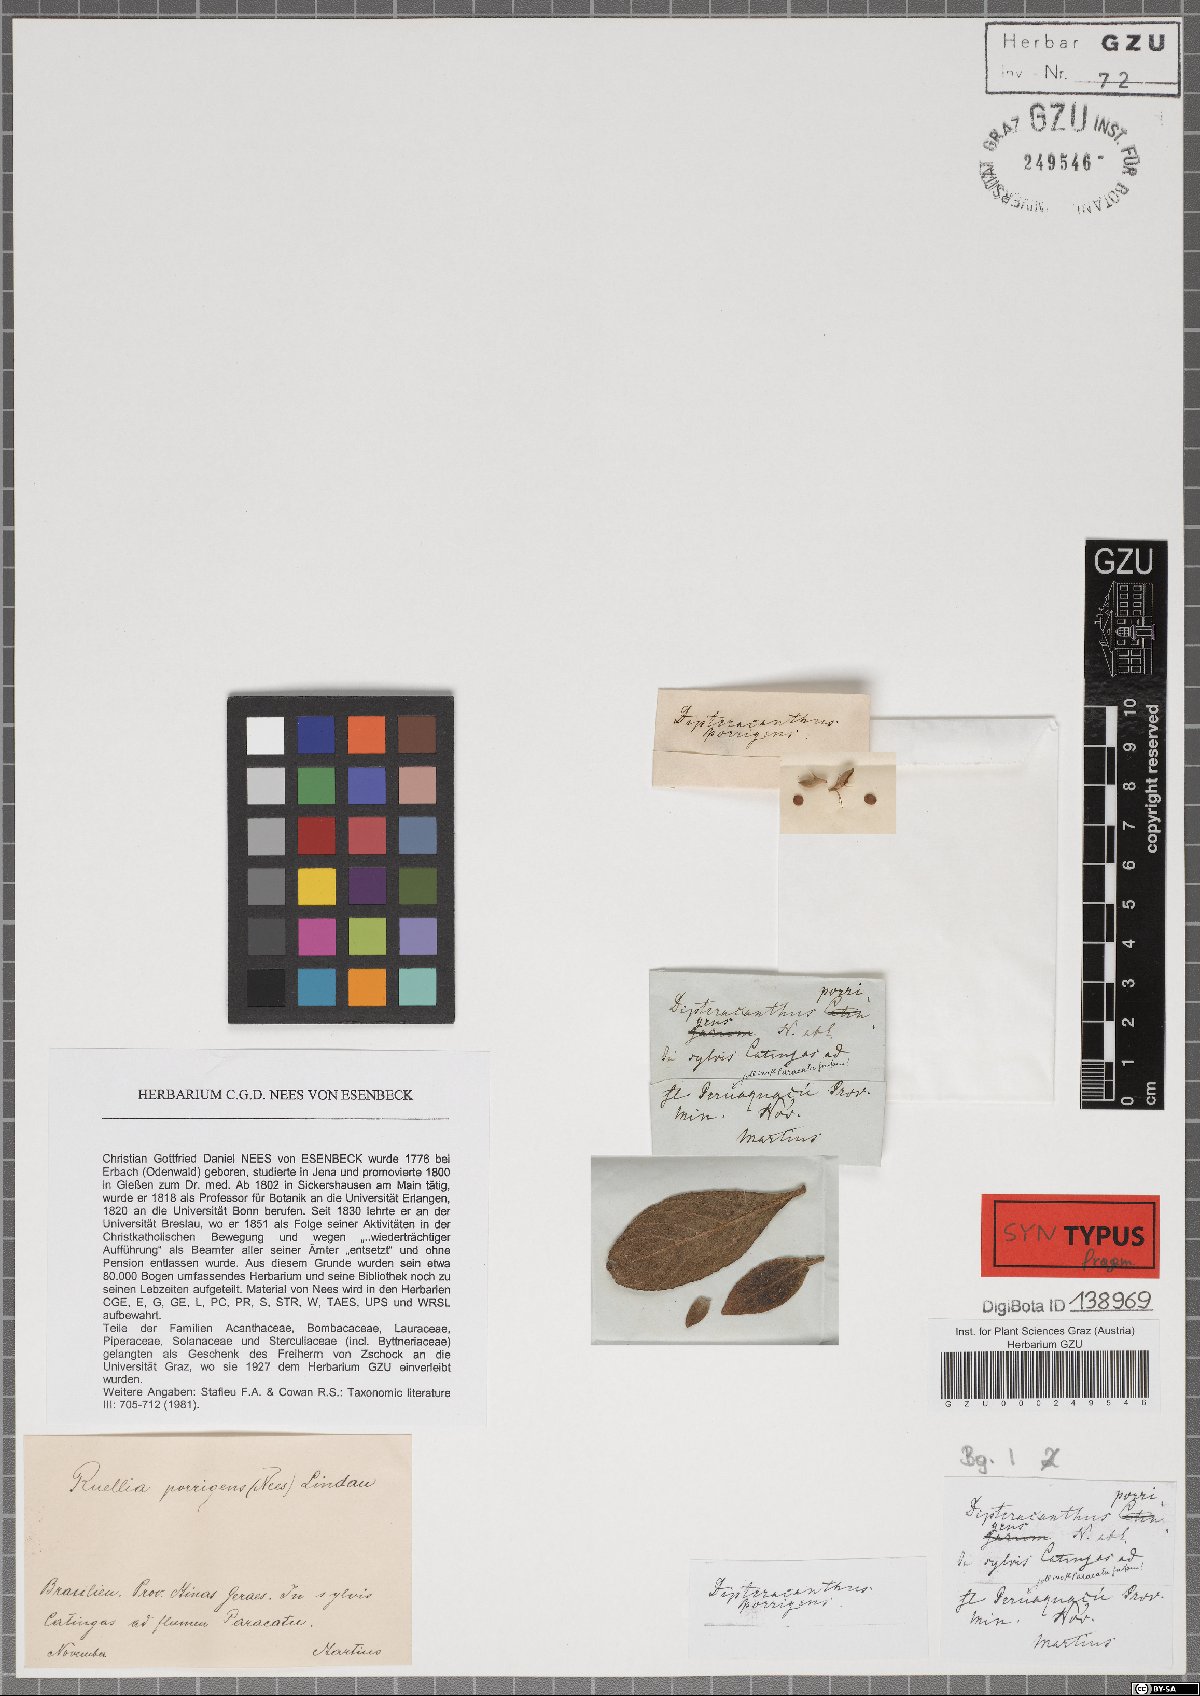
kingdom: Plantae
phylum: Tracheophyta
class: Magnoliopsida
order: Lamiales
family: Acanthaceae
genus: Ruellia
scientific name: Ruellia geminiflora
